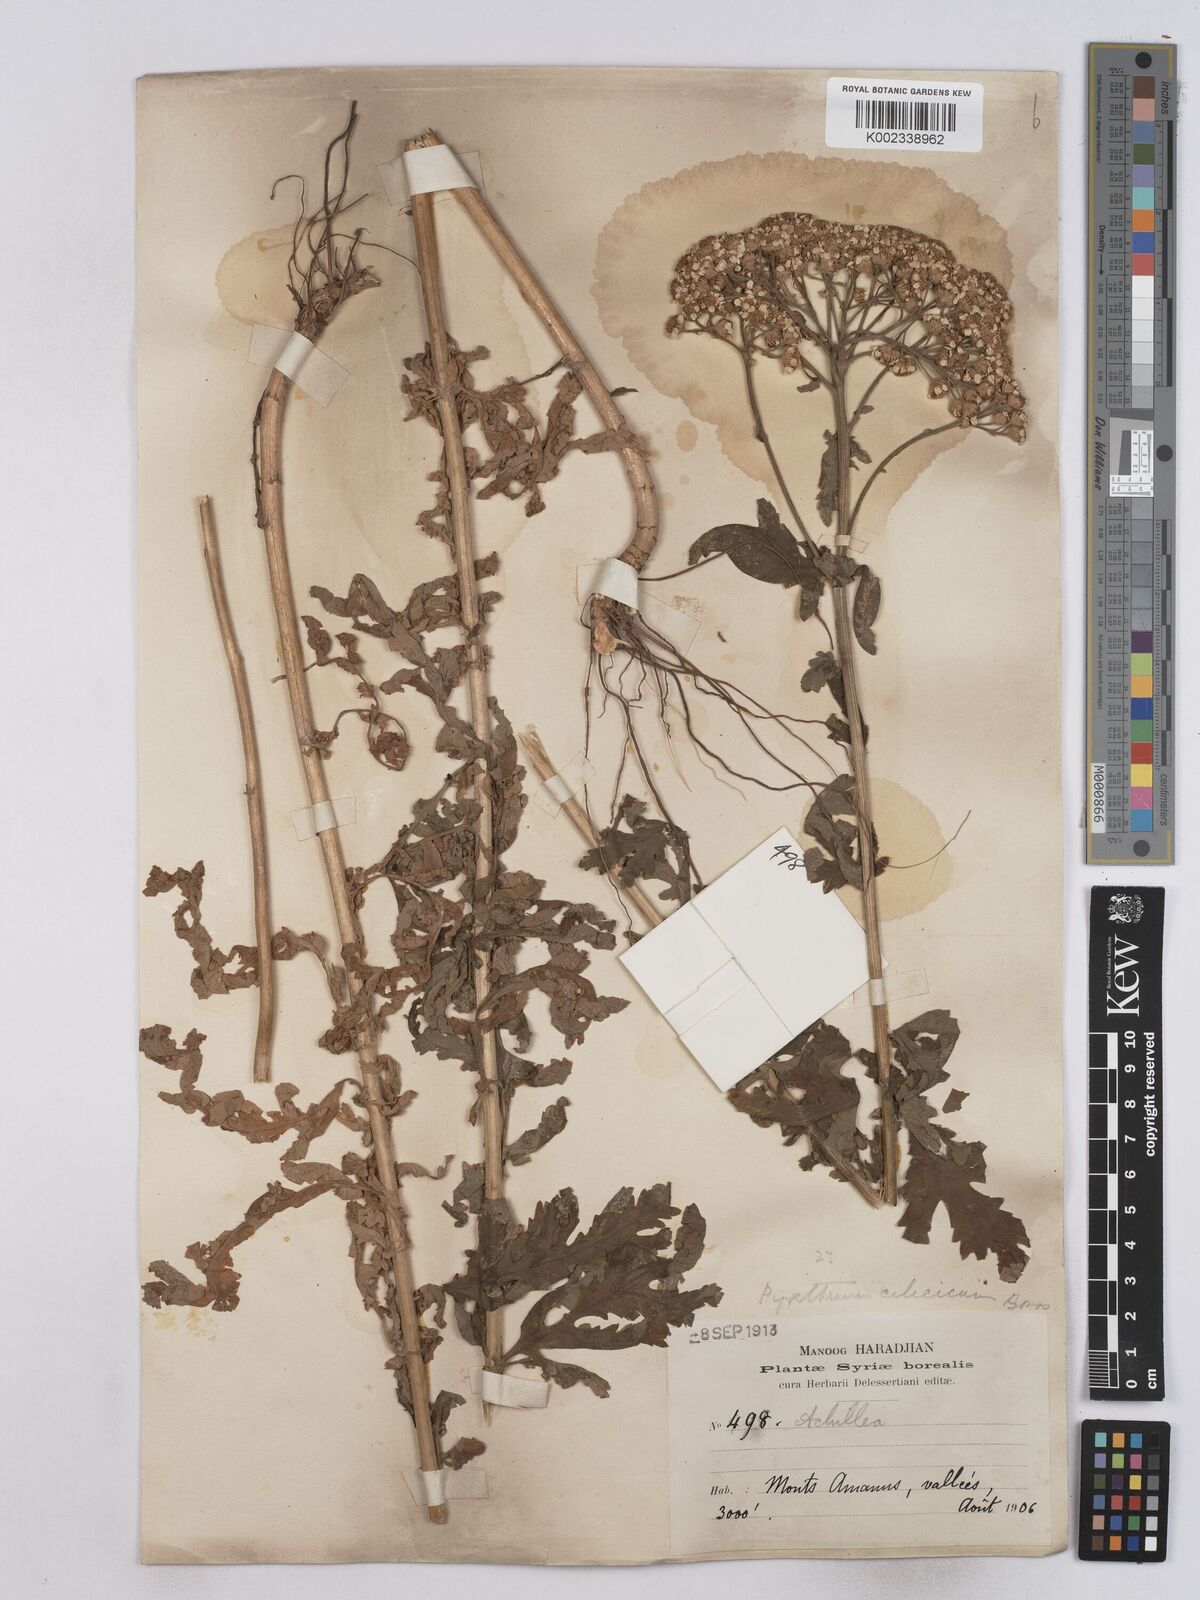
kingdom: Plantae
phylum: Tracheophyta
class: Magnoliopsida
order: Asterales
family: Asteraceae
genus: Tanacetum
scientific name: Tanacetum cilicicum
